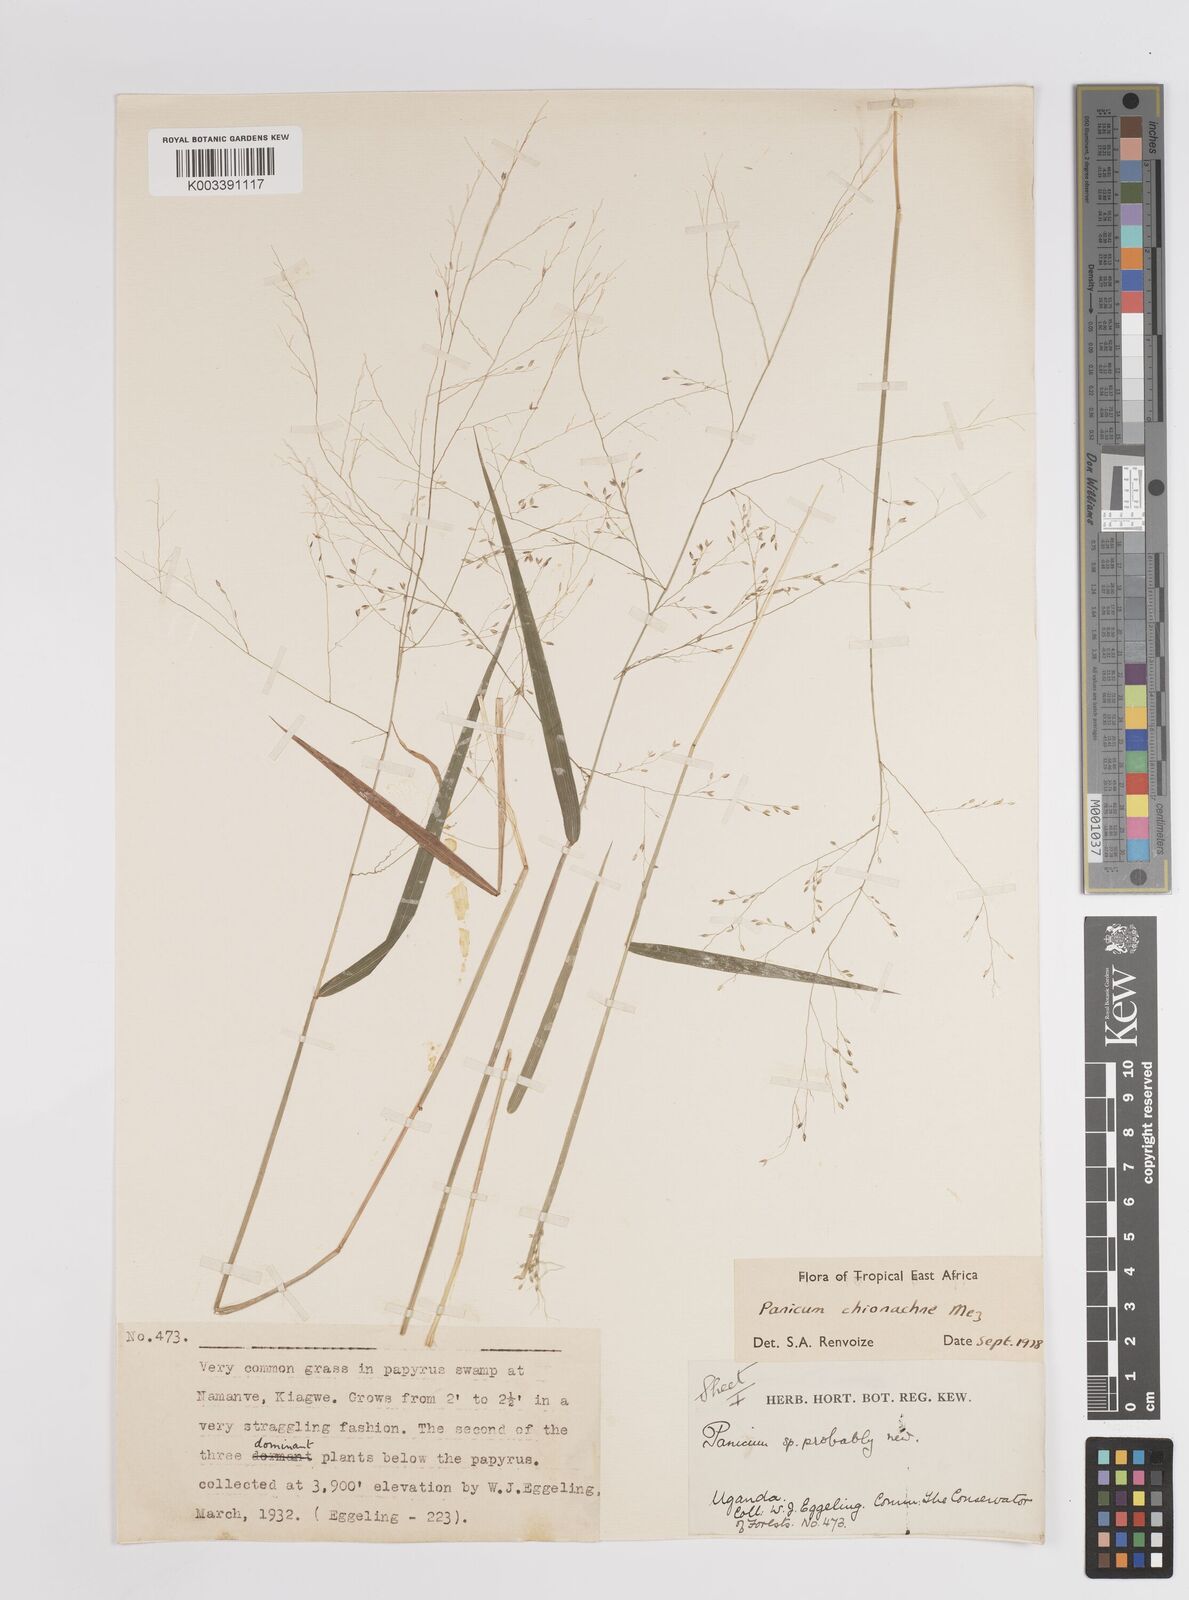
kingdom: Plantae
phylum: Tracheophyta
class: Liliopsida
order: Poales
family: Poaceae
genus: Panicum
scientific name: Panicum chionachne
